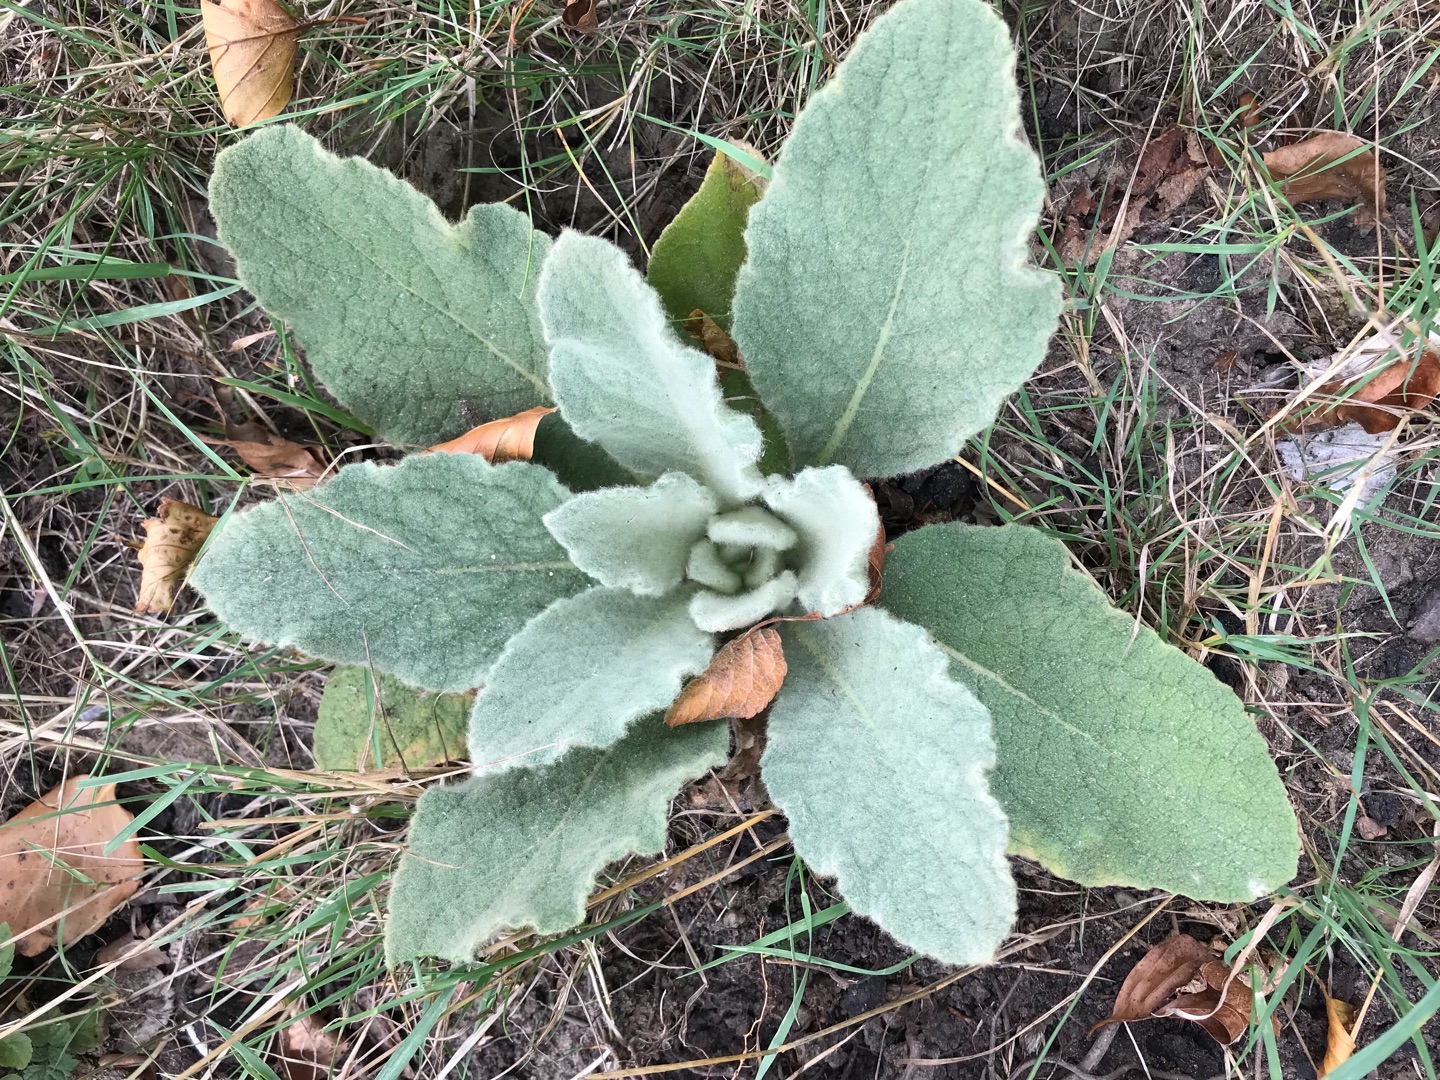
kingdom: Plantae
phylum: Tracheophyta
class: Magnoliopsida
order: Lamiales
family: Scrophulariaceae
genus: Verbascum
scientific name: Verbascum thapsus
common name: Filtbladet kongelys
